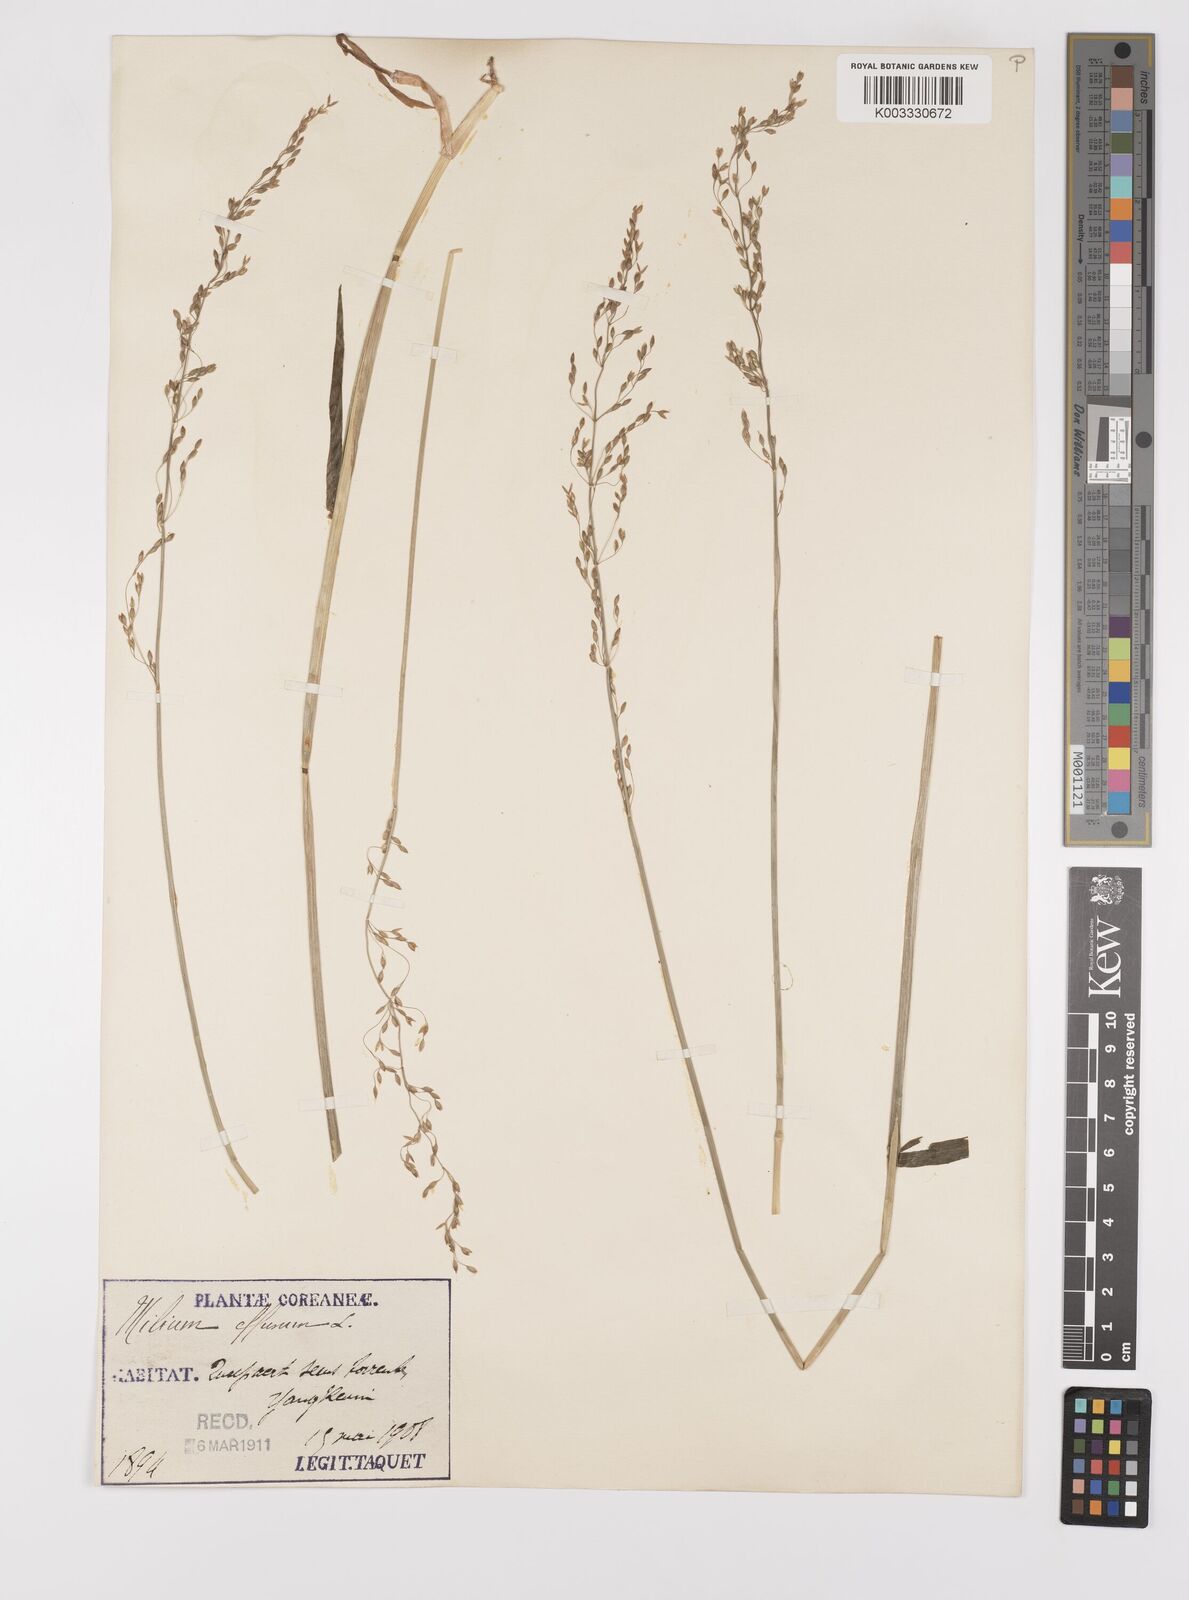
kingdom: Plantae
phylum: Tracheophyta
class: Liliopsida
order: Poales
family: Poaceae
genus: Milium
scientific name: Milium effusum
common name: Wood millet
